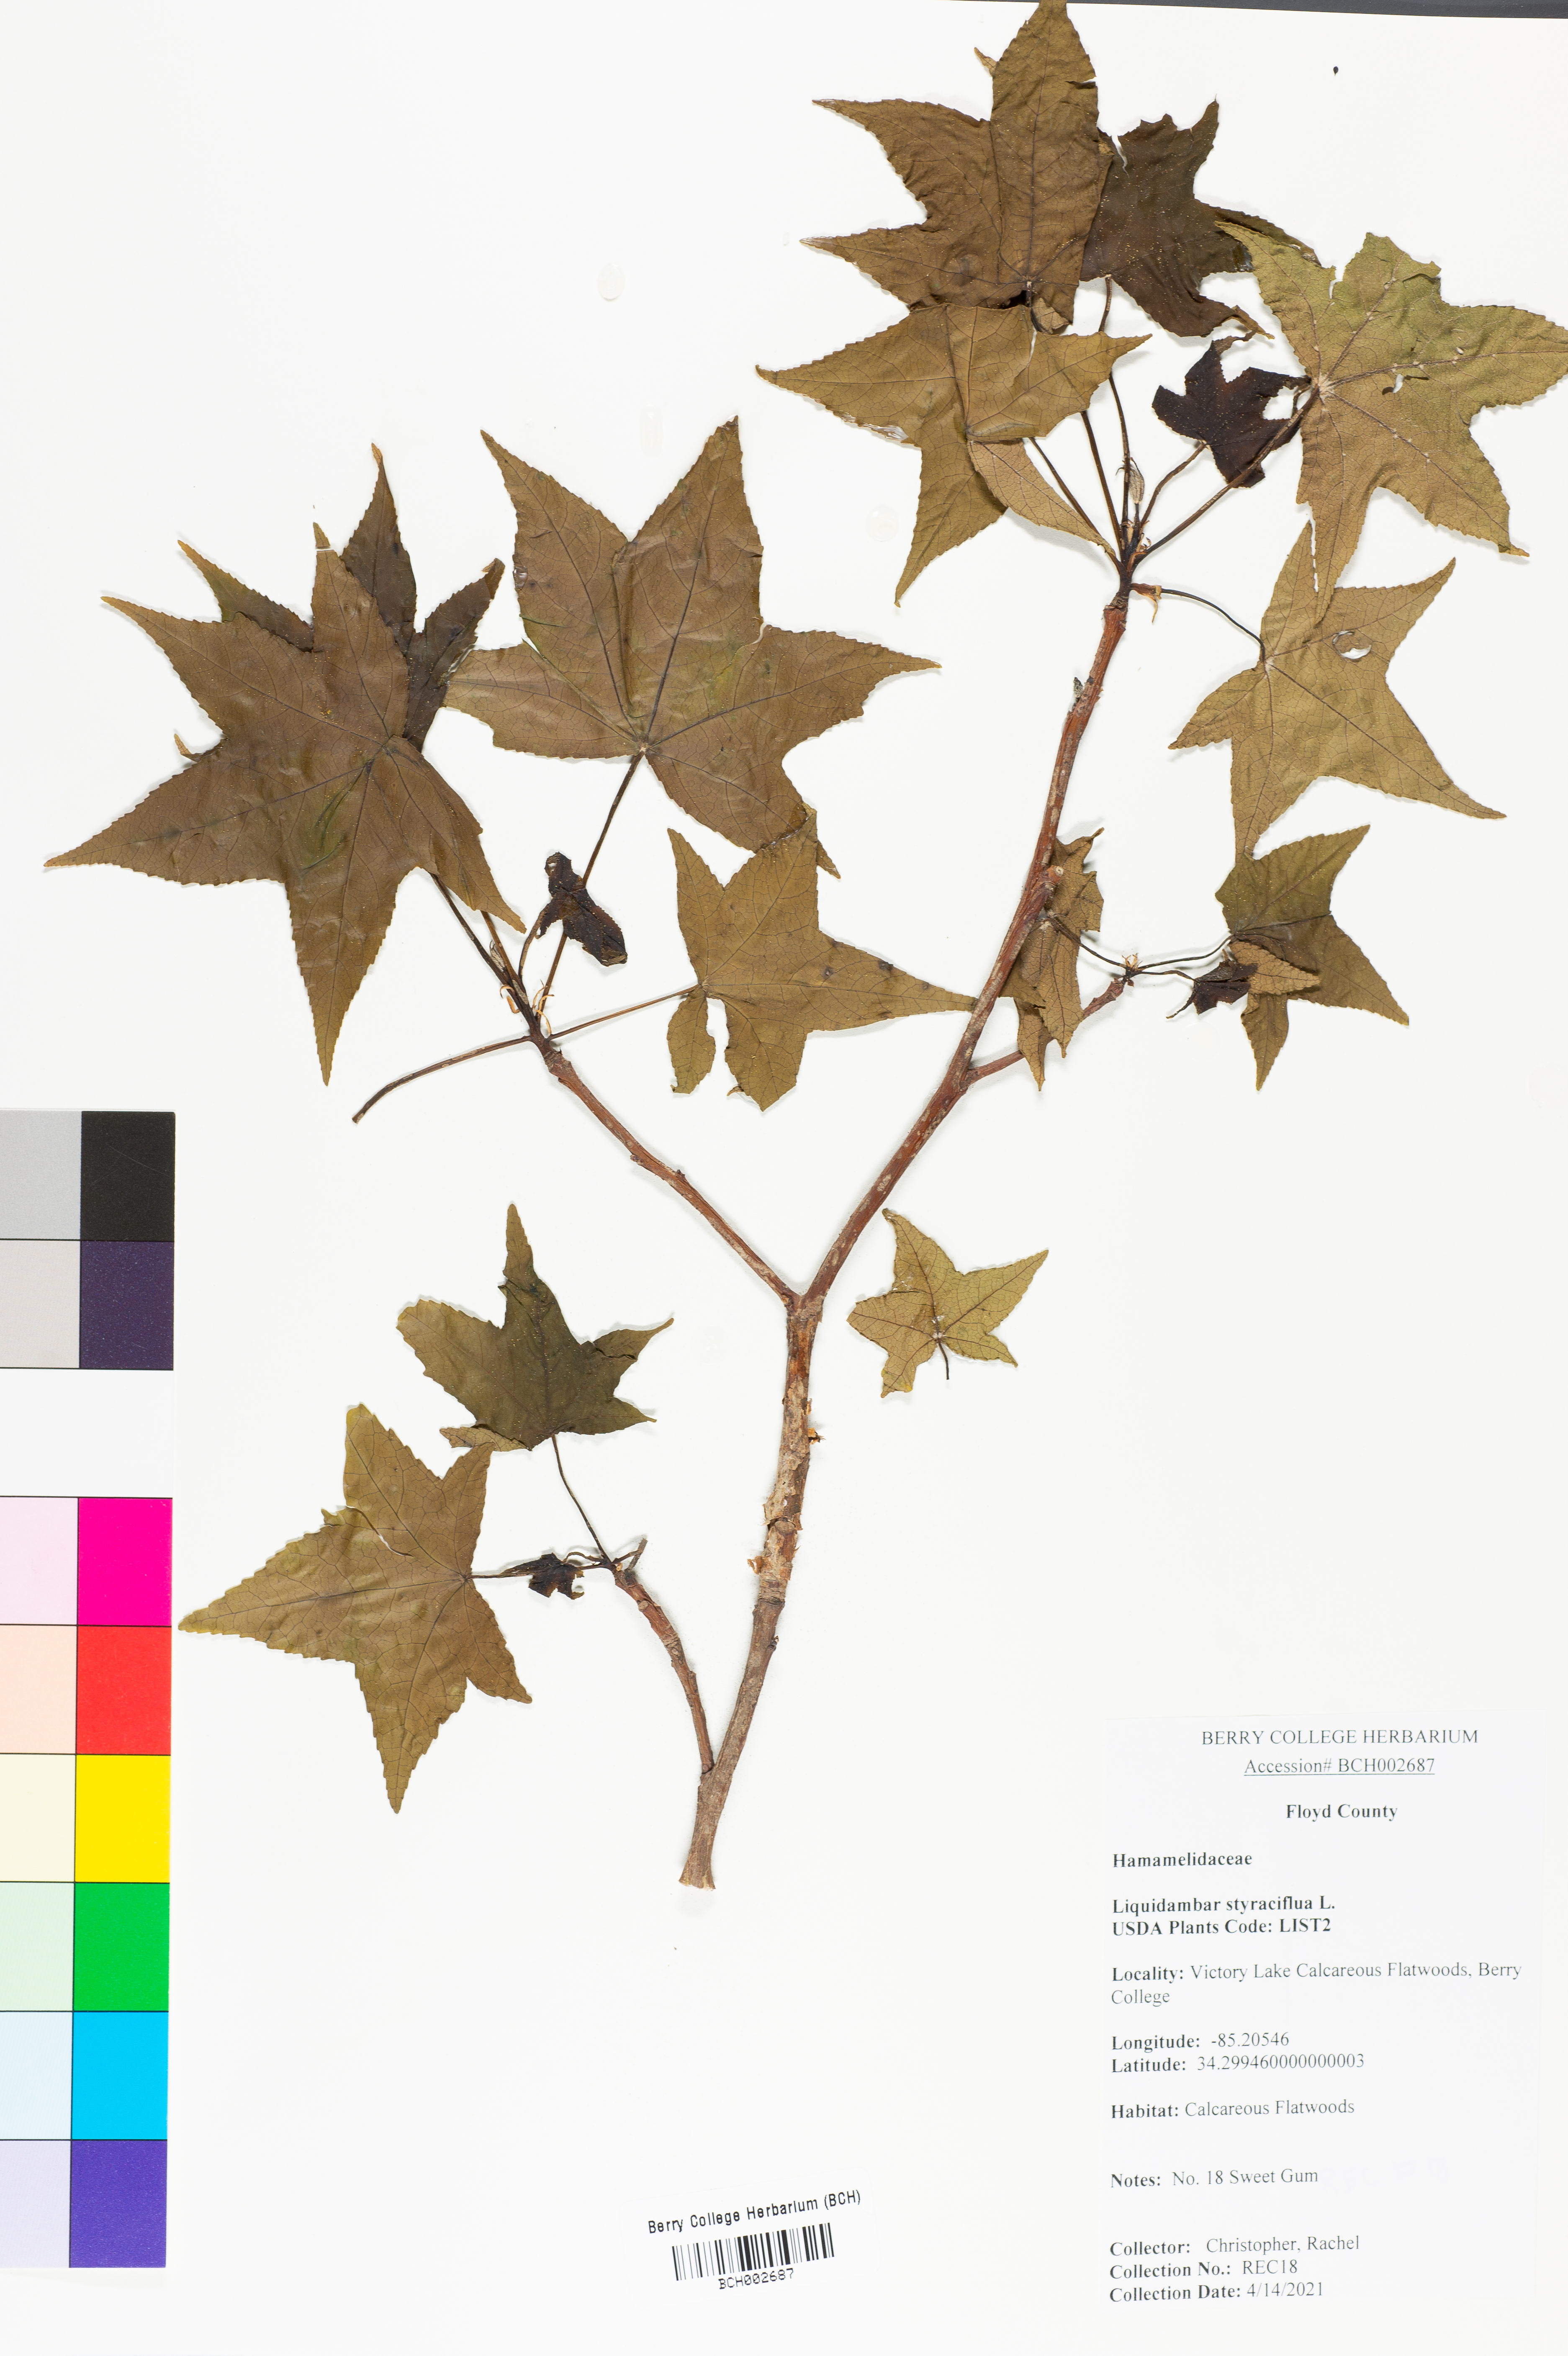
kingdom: Plantae
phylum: Tracheophyta
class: Magnoliopsida
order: Saxifragales
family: Altingiaceae
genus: Liquidambar
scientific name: Liquidambar styraciflua
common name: Sweet gum
